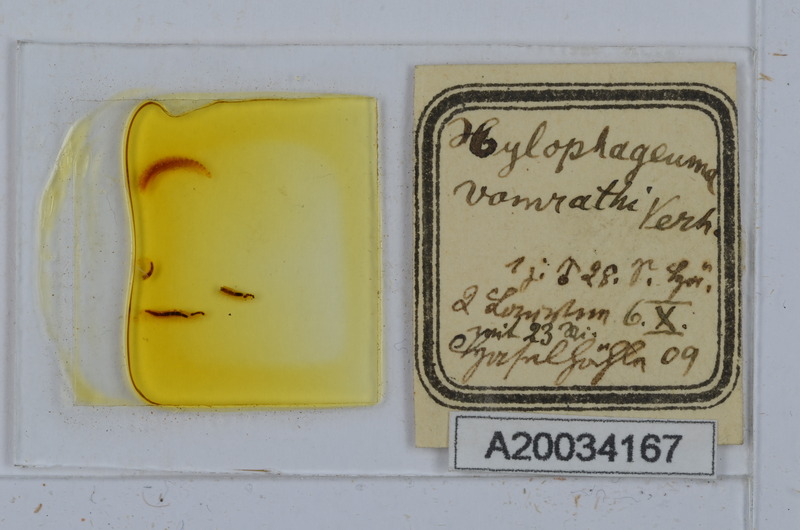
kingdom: Animalia
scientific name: Animalia
